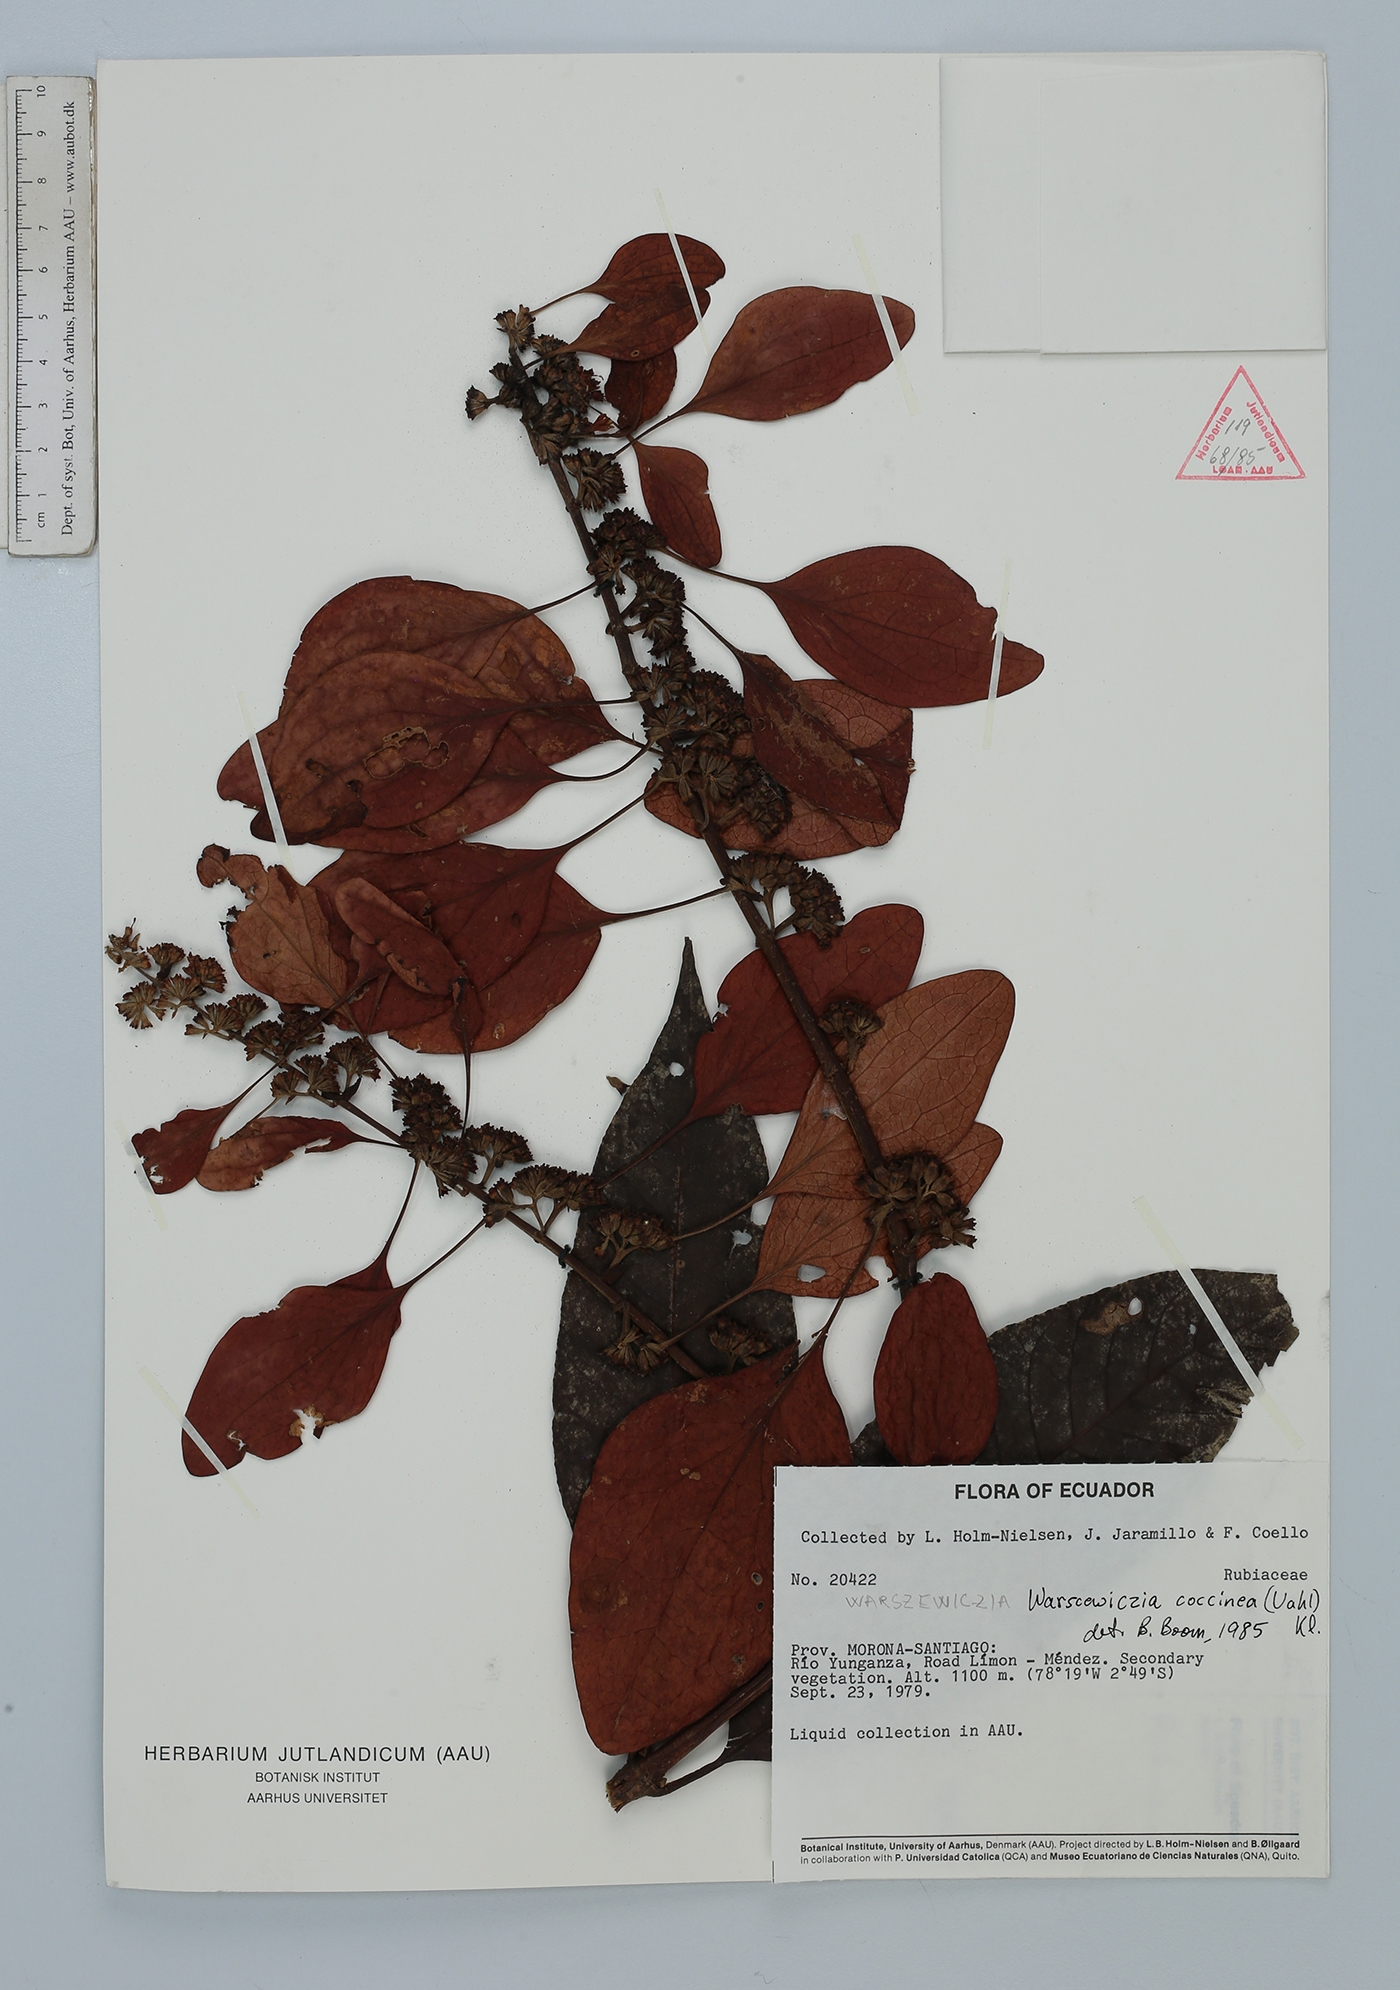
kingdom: Plantae
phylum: Tracheophyta
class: Magnoliopsida
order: Gentianales
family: Rubiaceae
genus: Warszewiczia
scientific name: Warszewiczia coccinea
